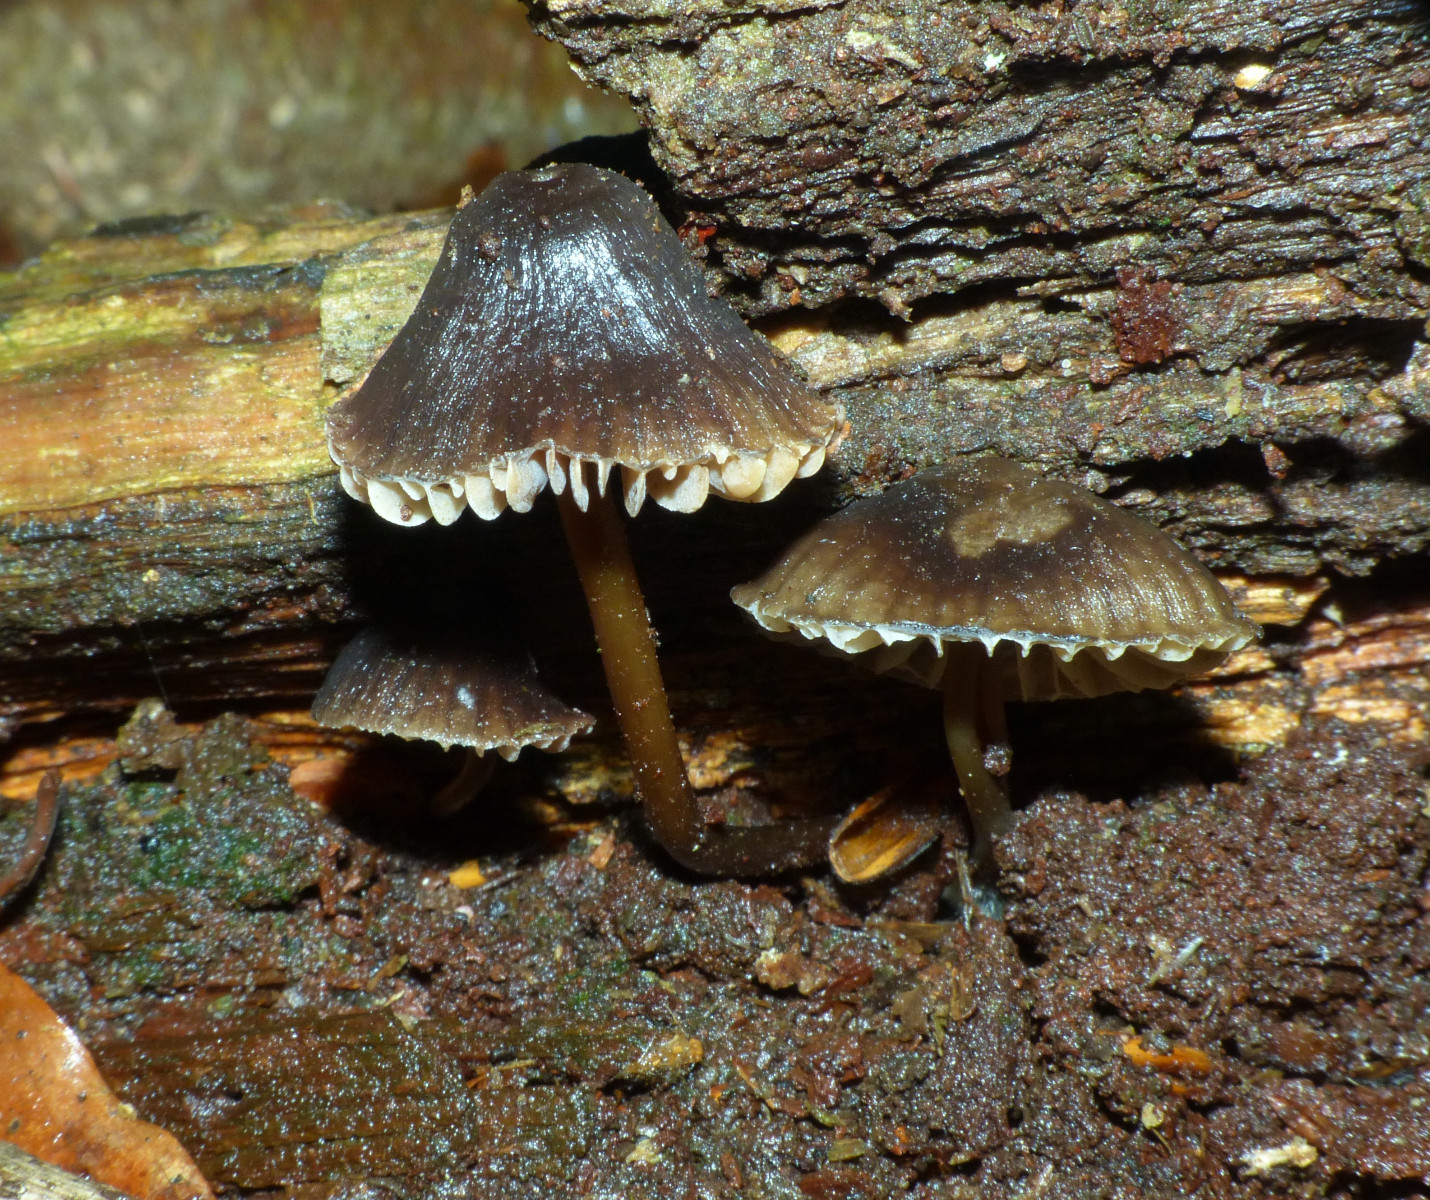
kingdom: Fungi
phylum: Basidiomycota
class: Agaricomycetes
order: Agaricales
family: Mycenaceae
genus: Mycena
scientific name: Mycena maculata
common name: rødplettet huesvamp
